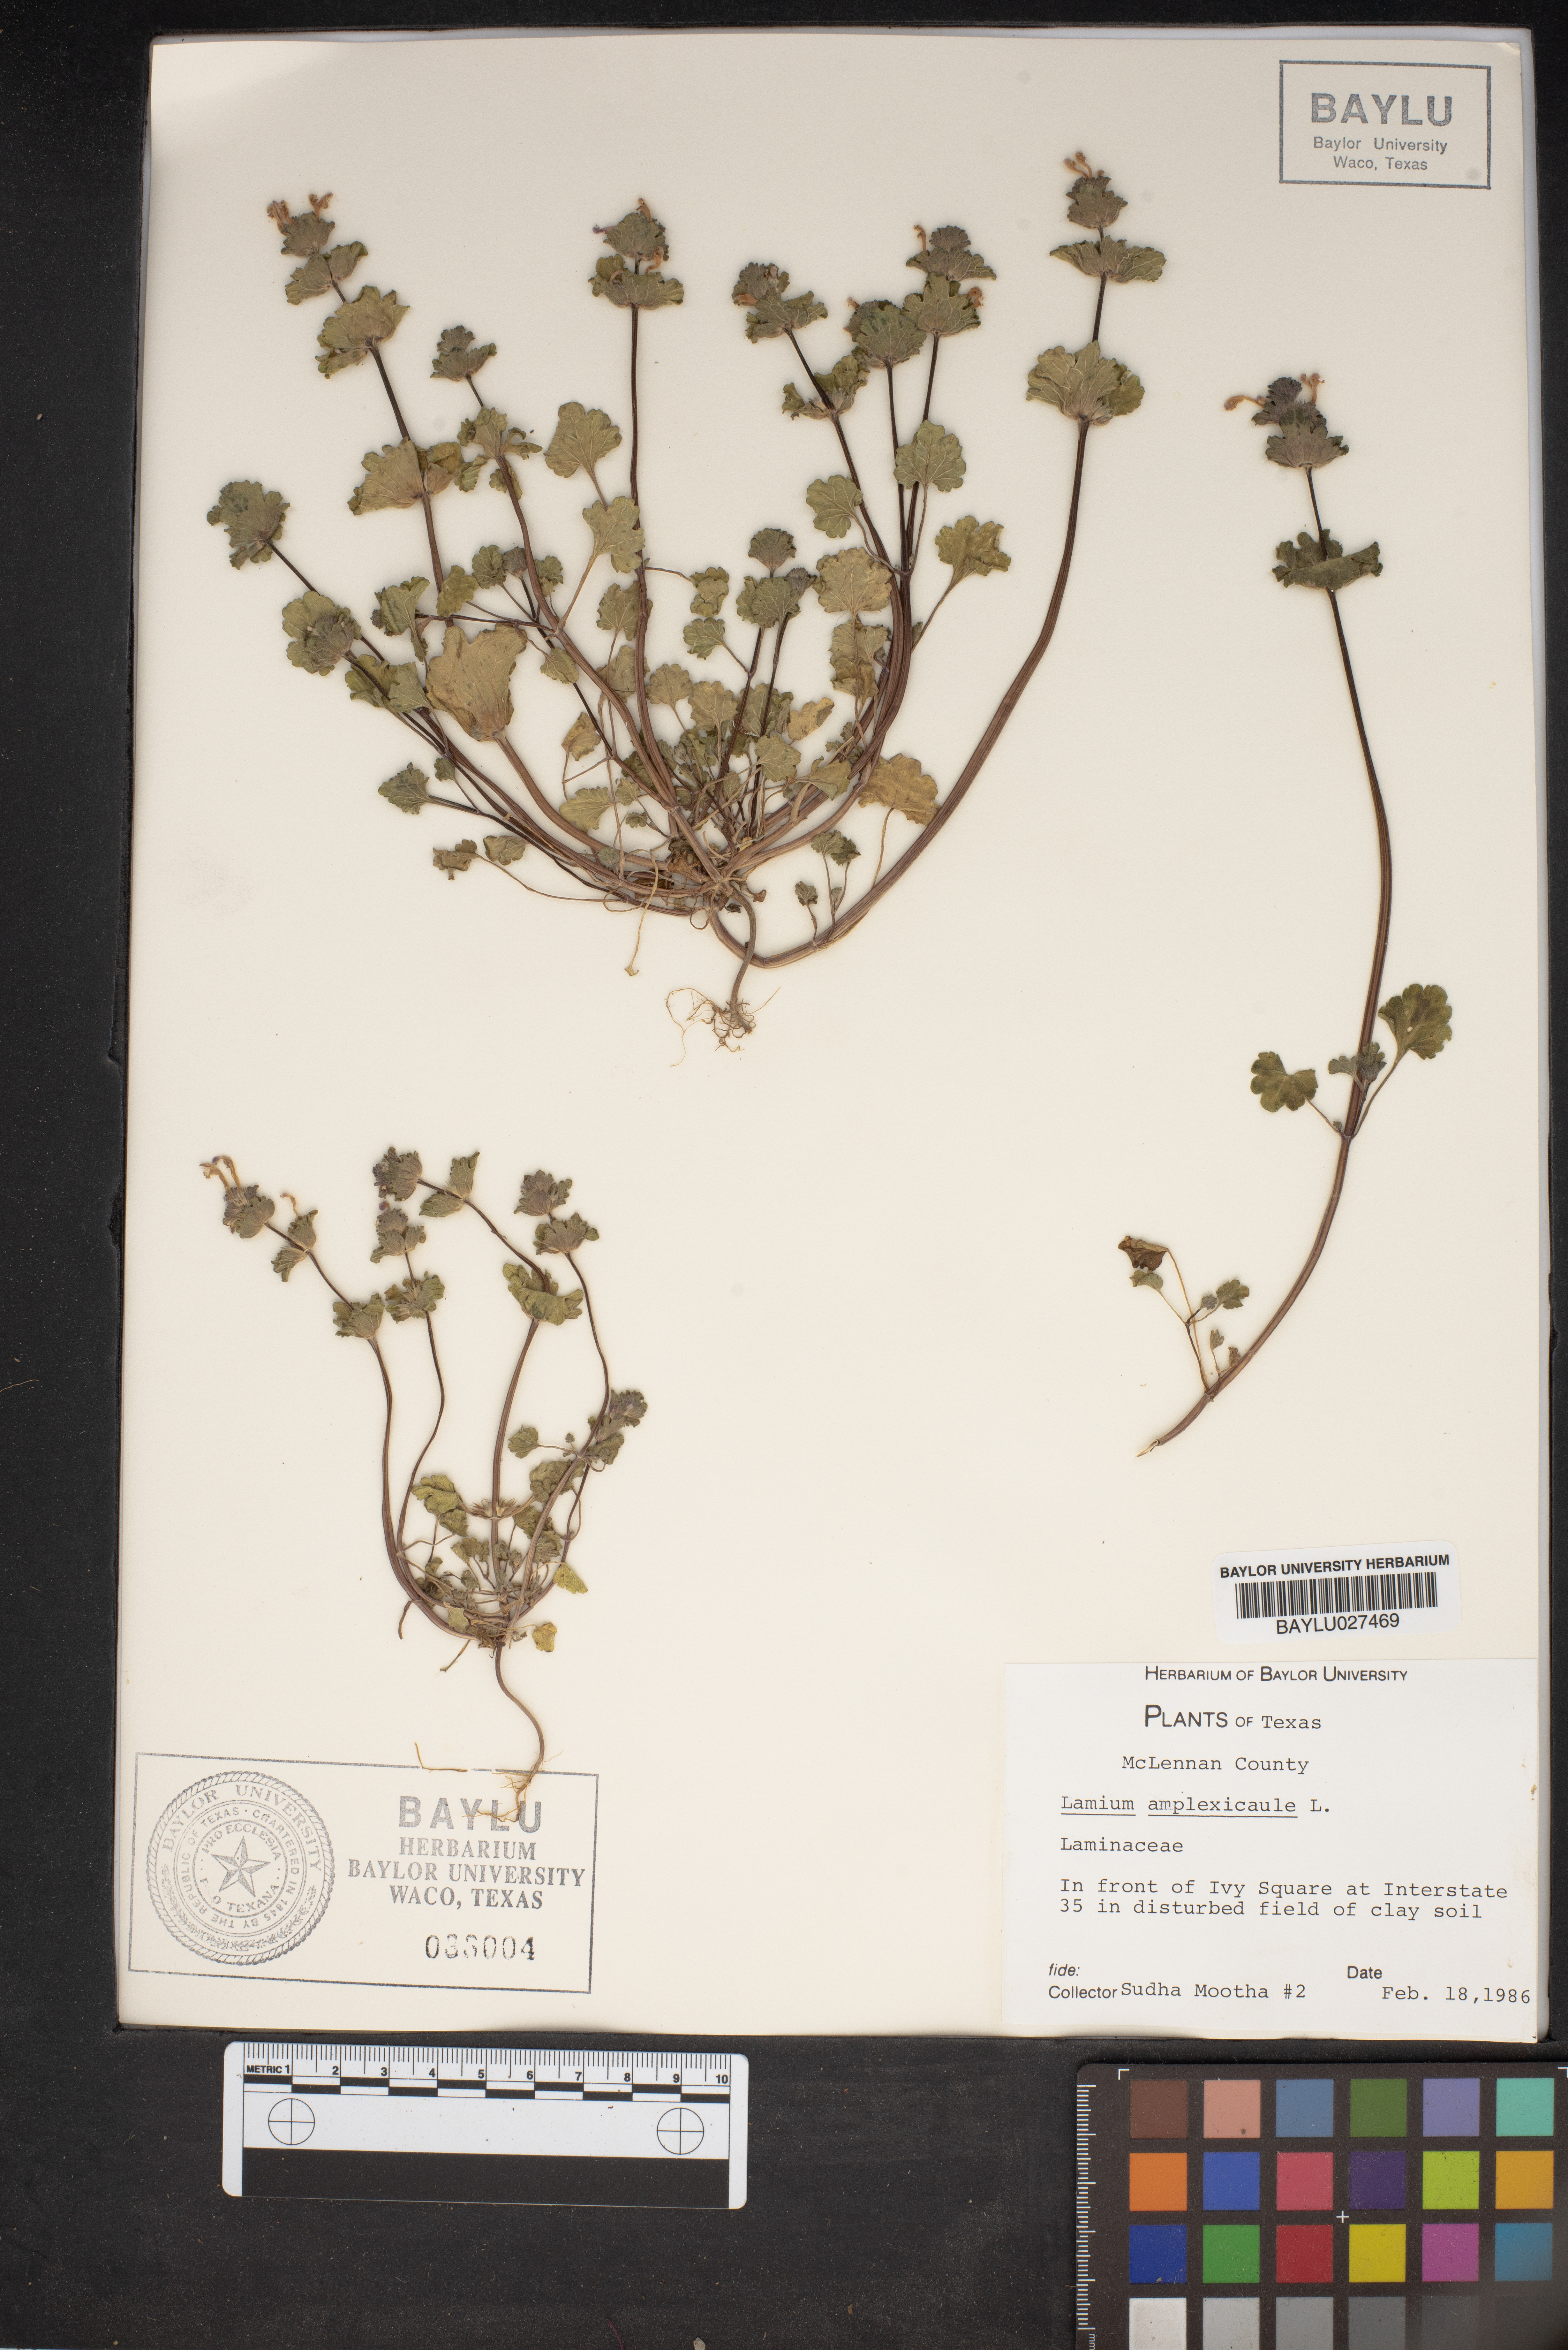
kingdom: Plantae
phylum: Tracheophyta
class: Magnoliopsida
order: Lamiales
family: Lamiaceae
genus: Lamium
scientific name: Lamium amplexicaule
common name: Henbit dead-nettle
